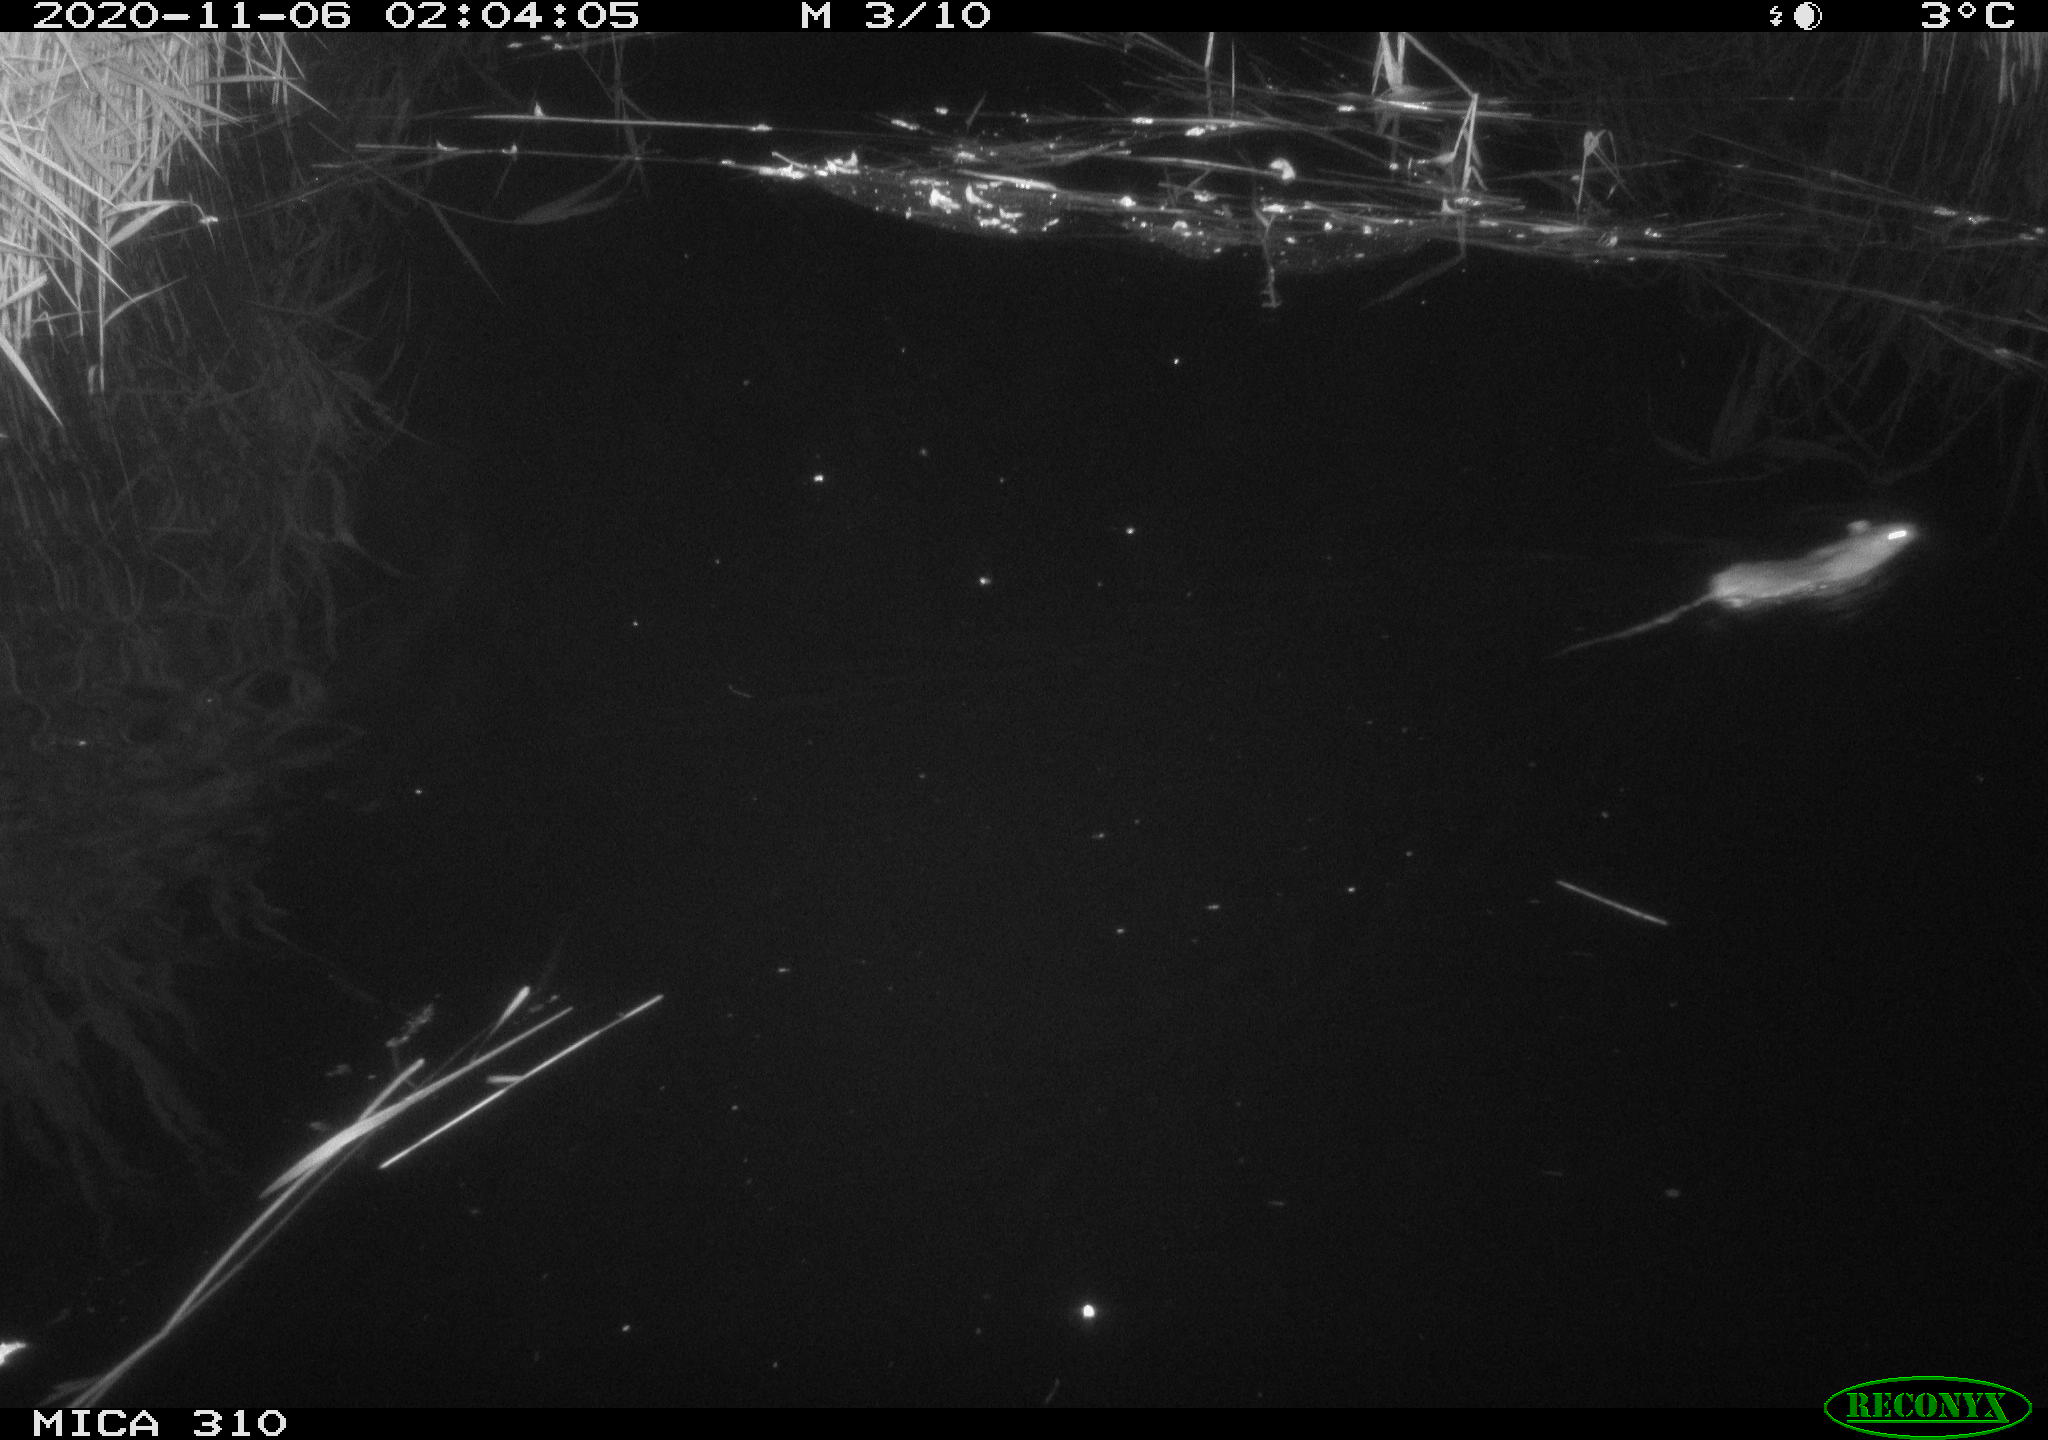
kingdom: Animalia
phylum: Chordata
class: Mammalia
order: Rodentia
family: Muridae
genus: Rattus
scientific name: Rattus norvegicus
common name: Brown rat
